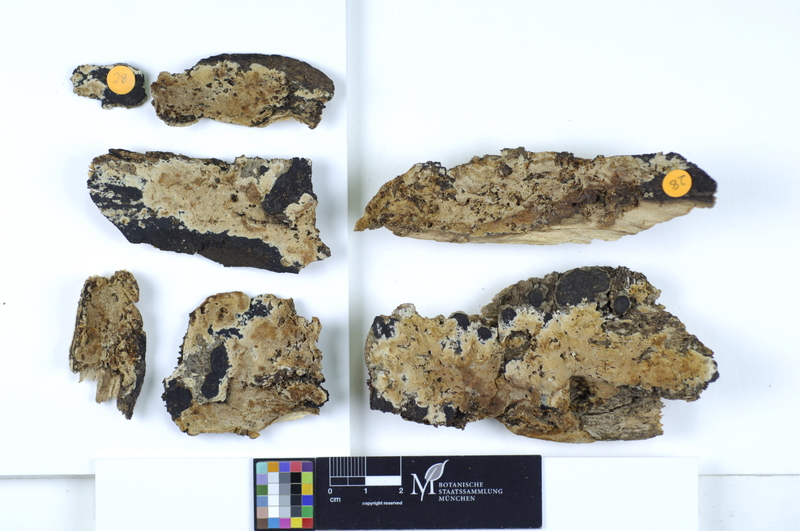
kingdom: Fungi
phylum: Basidiomycota
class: Agaricomycetes
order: Polyporales
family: Meruliaceae
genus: Mycoacia
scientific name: Mycoacia gilvescens
